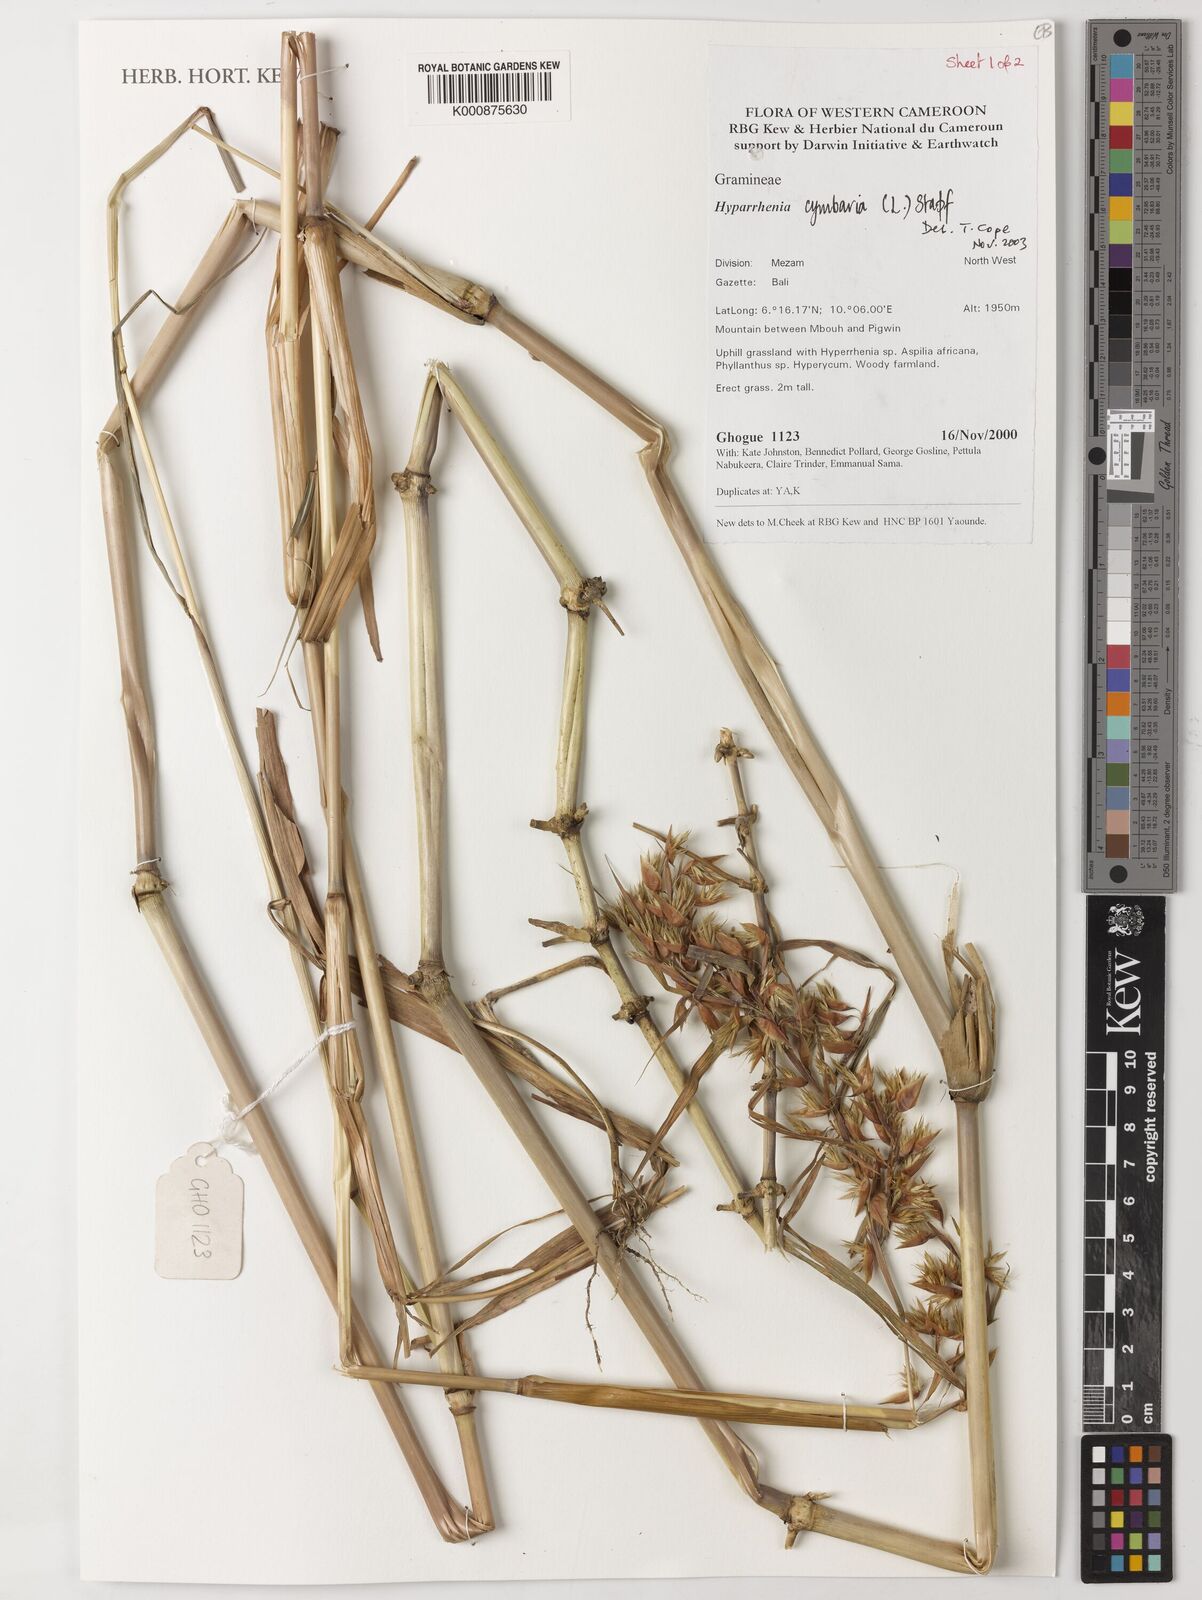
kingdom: Plantae
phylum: Tracheophyta
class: Liliopsida
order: Poales
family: Poaceae
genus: Hyparrhenia
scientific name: Hyparrhenia cymbaria
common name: Boat thatching grass
